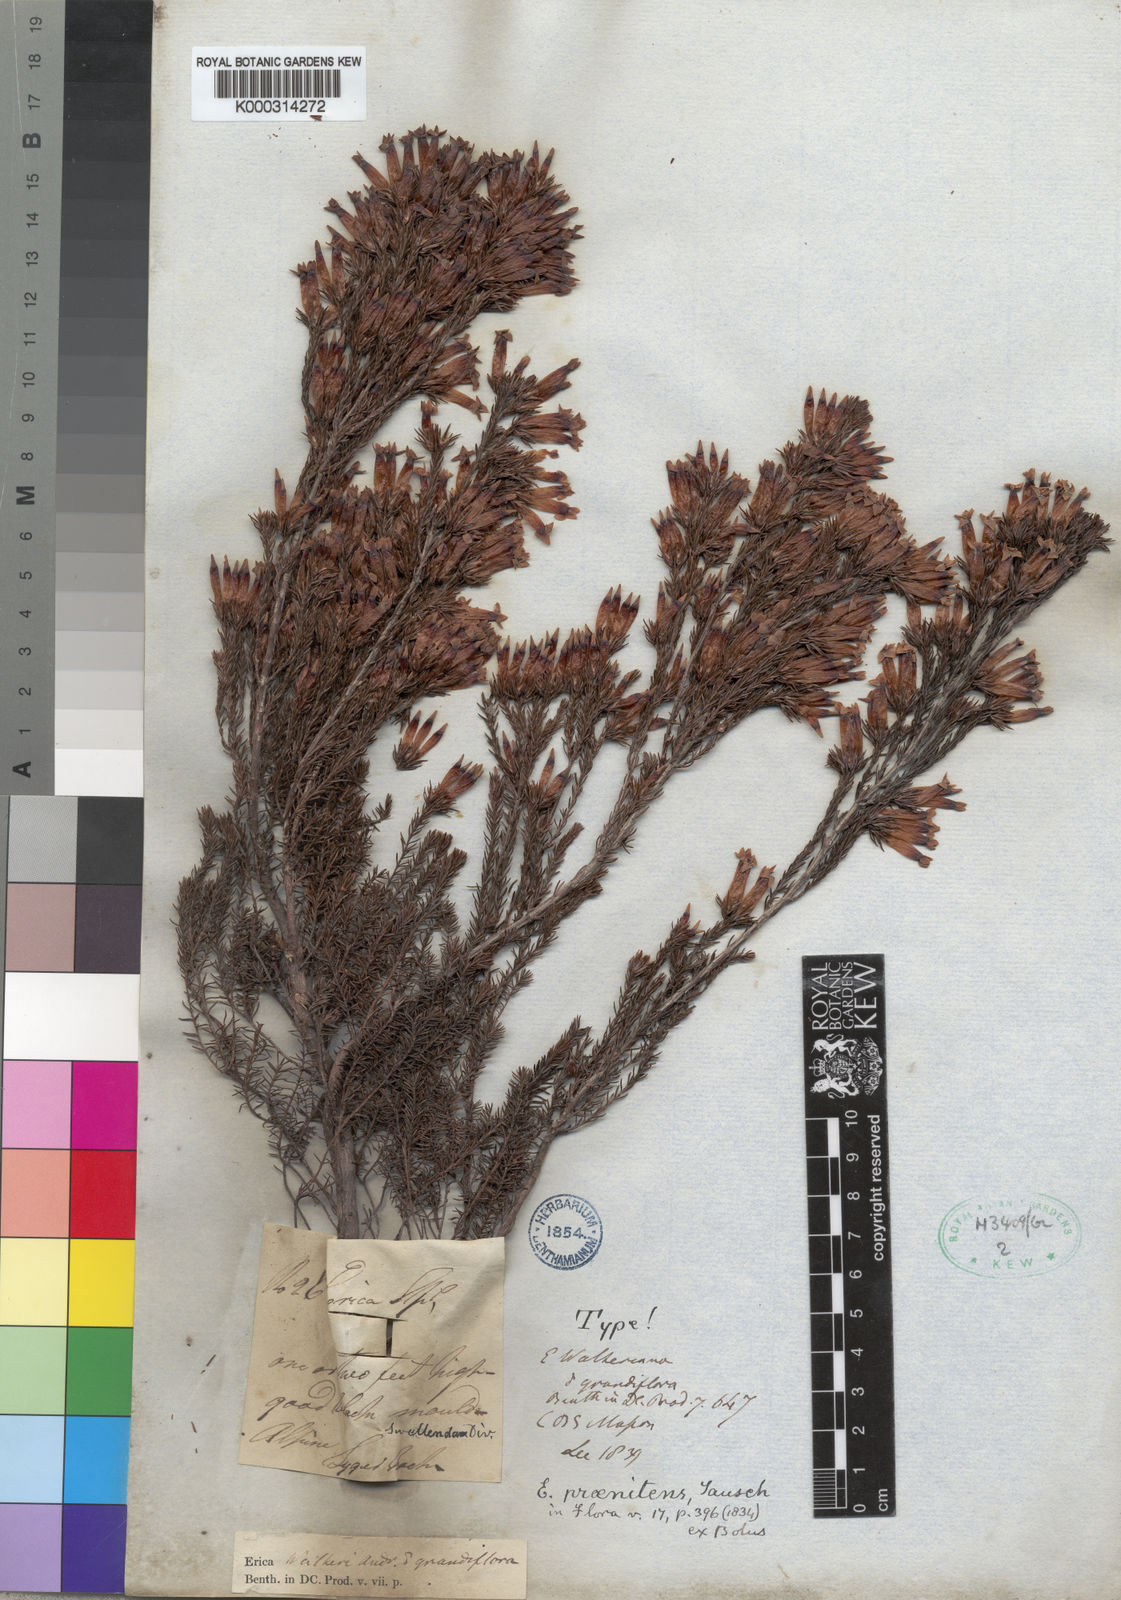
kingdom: Plantae
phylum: Tracheophyta
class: Magnoliopsida
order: Ericales
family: Ericaceae
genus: Erica
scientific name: Erica praenitens
